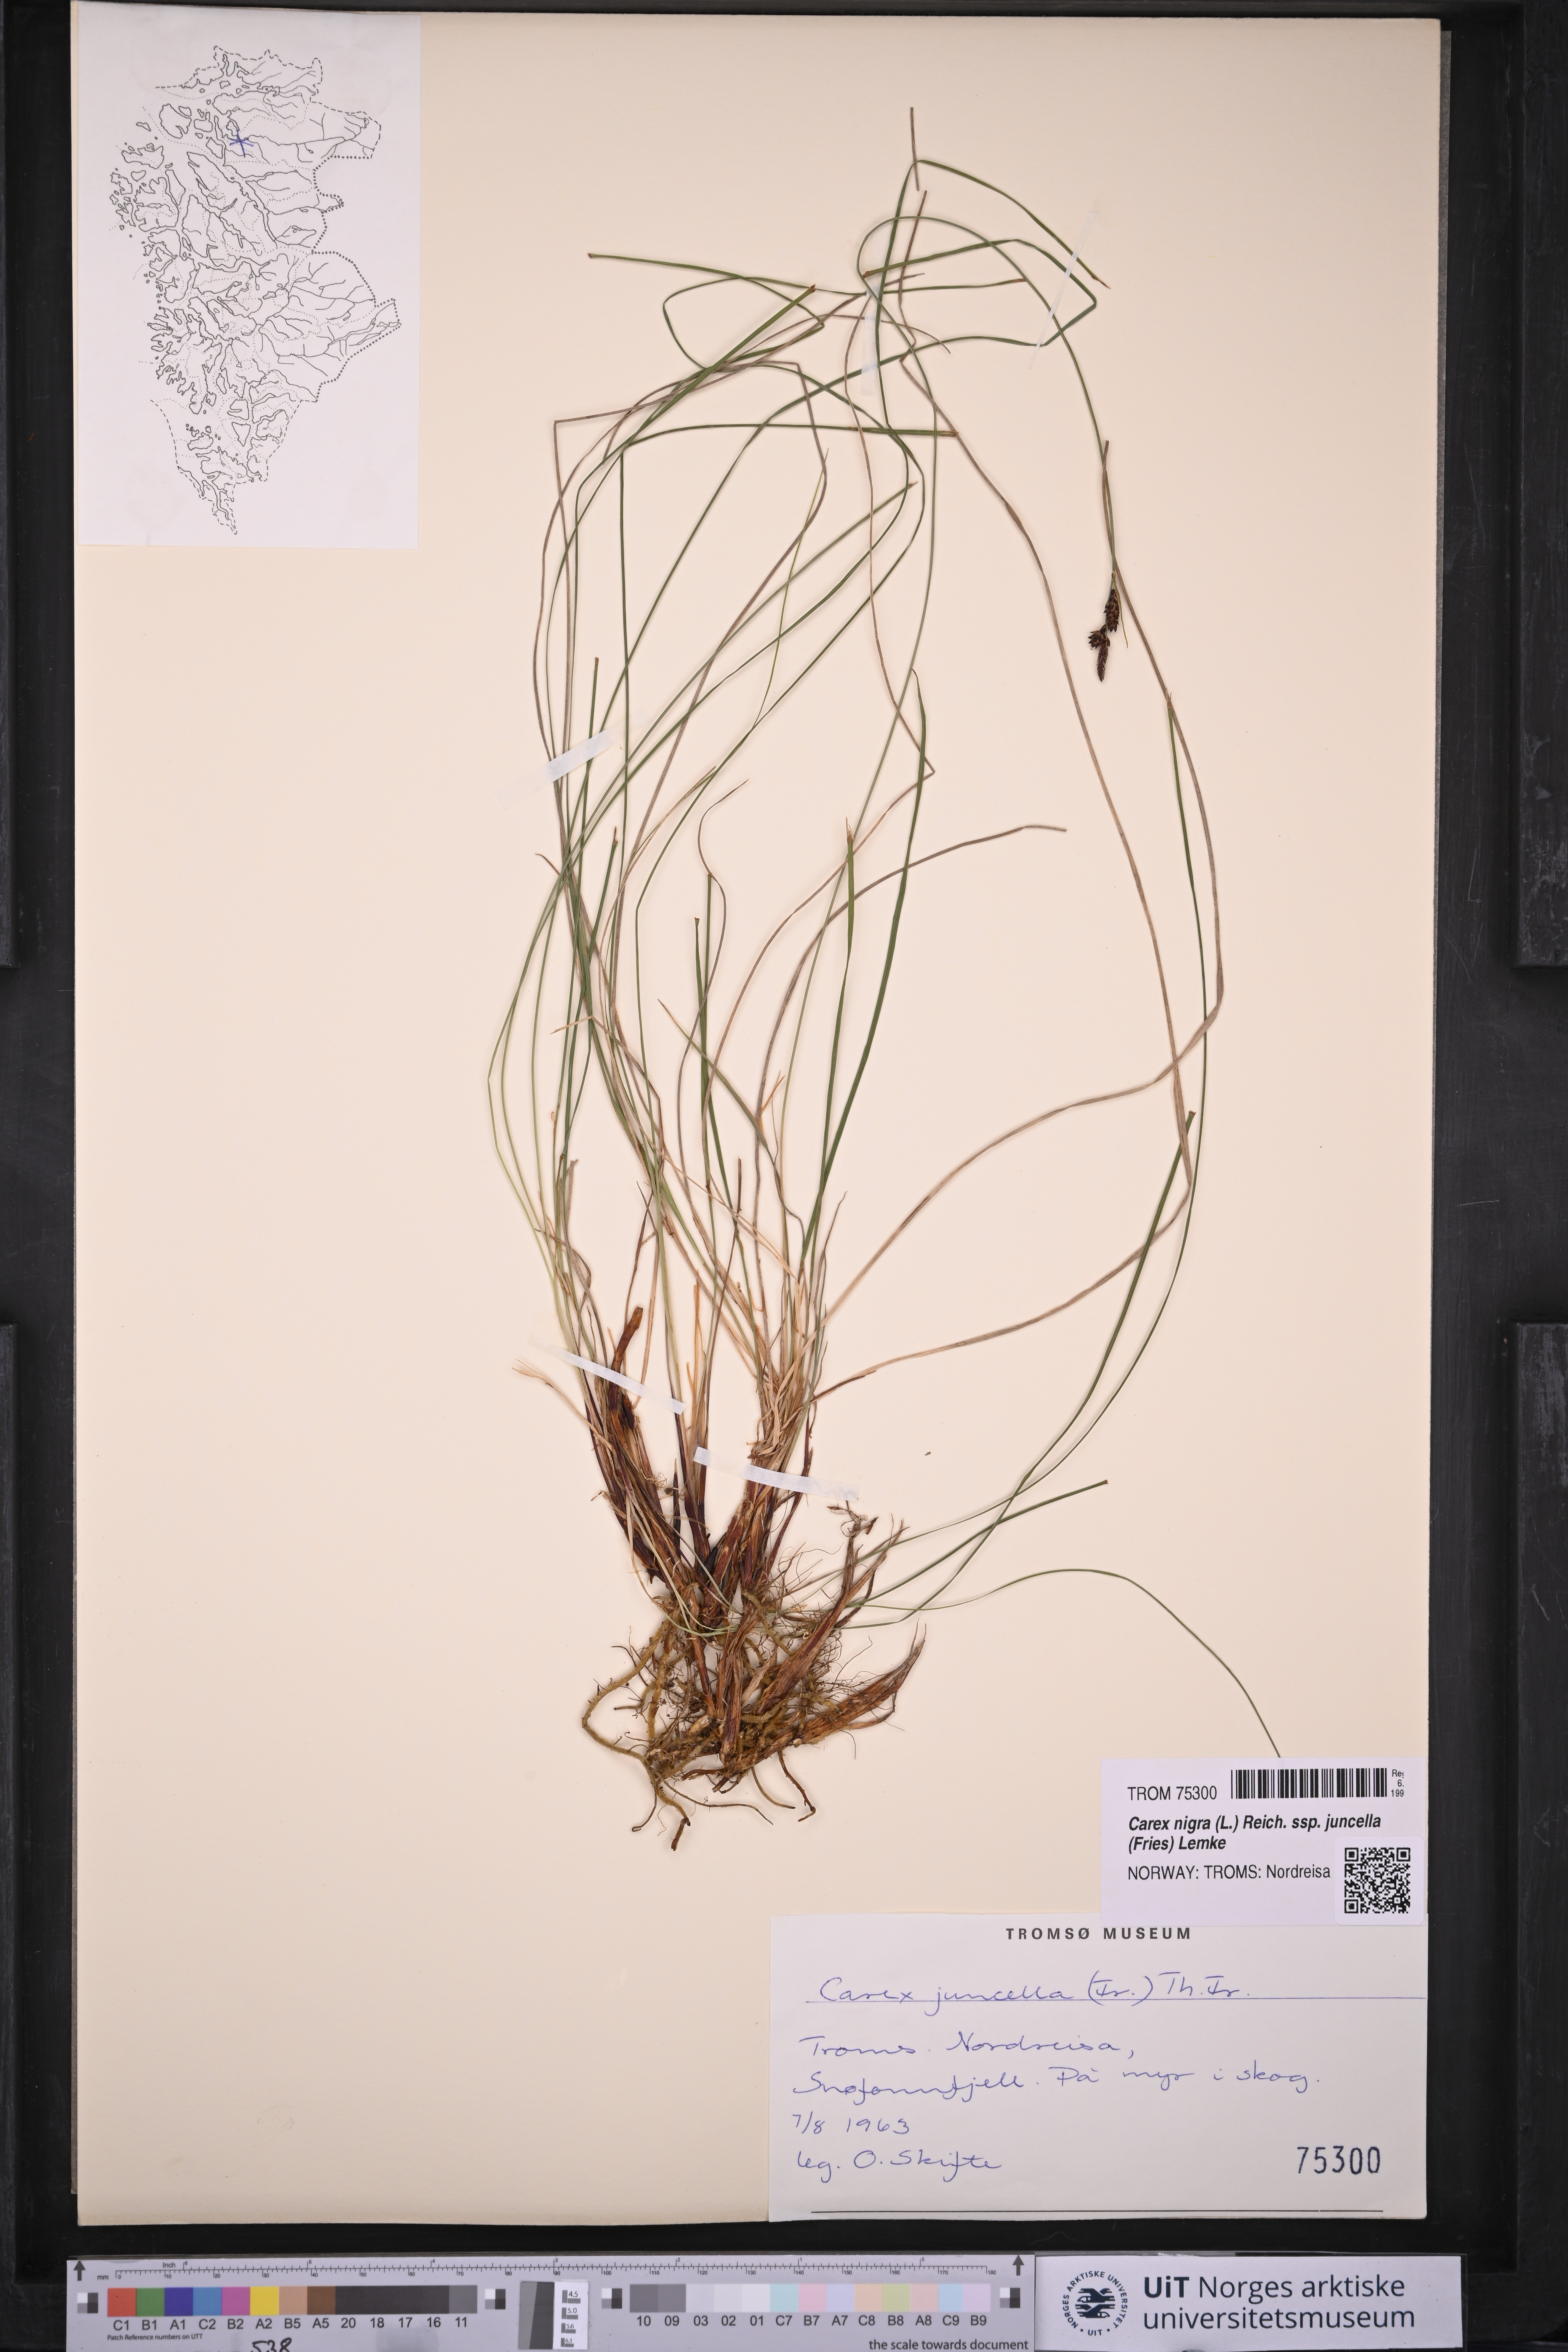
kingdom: Plantae
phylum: Tracheophyta
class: Liliopsida
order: Poales
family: Cyperaceae
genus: Carex
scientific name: Carex nigra
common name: Common sedge
